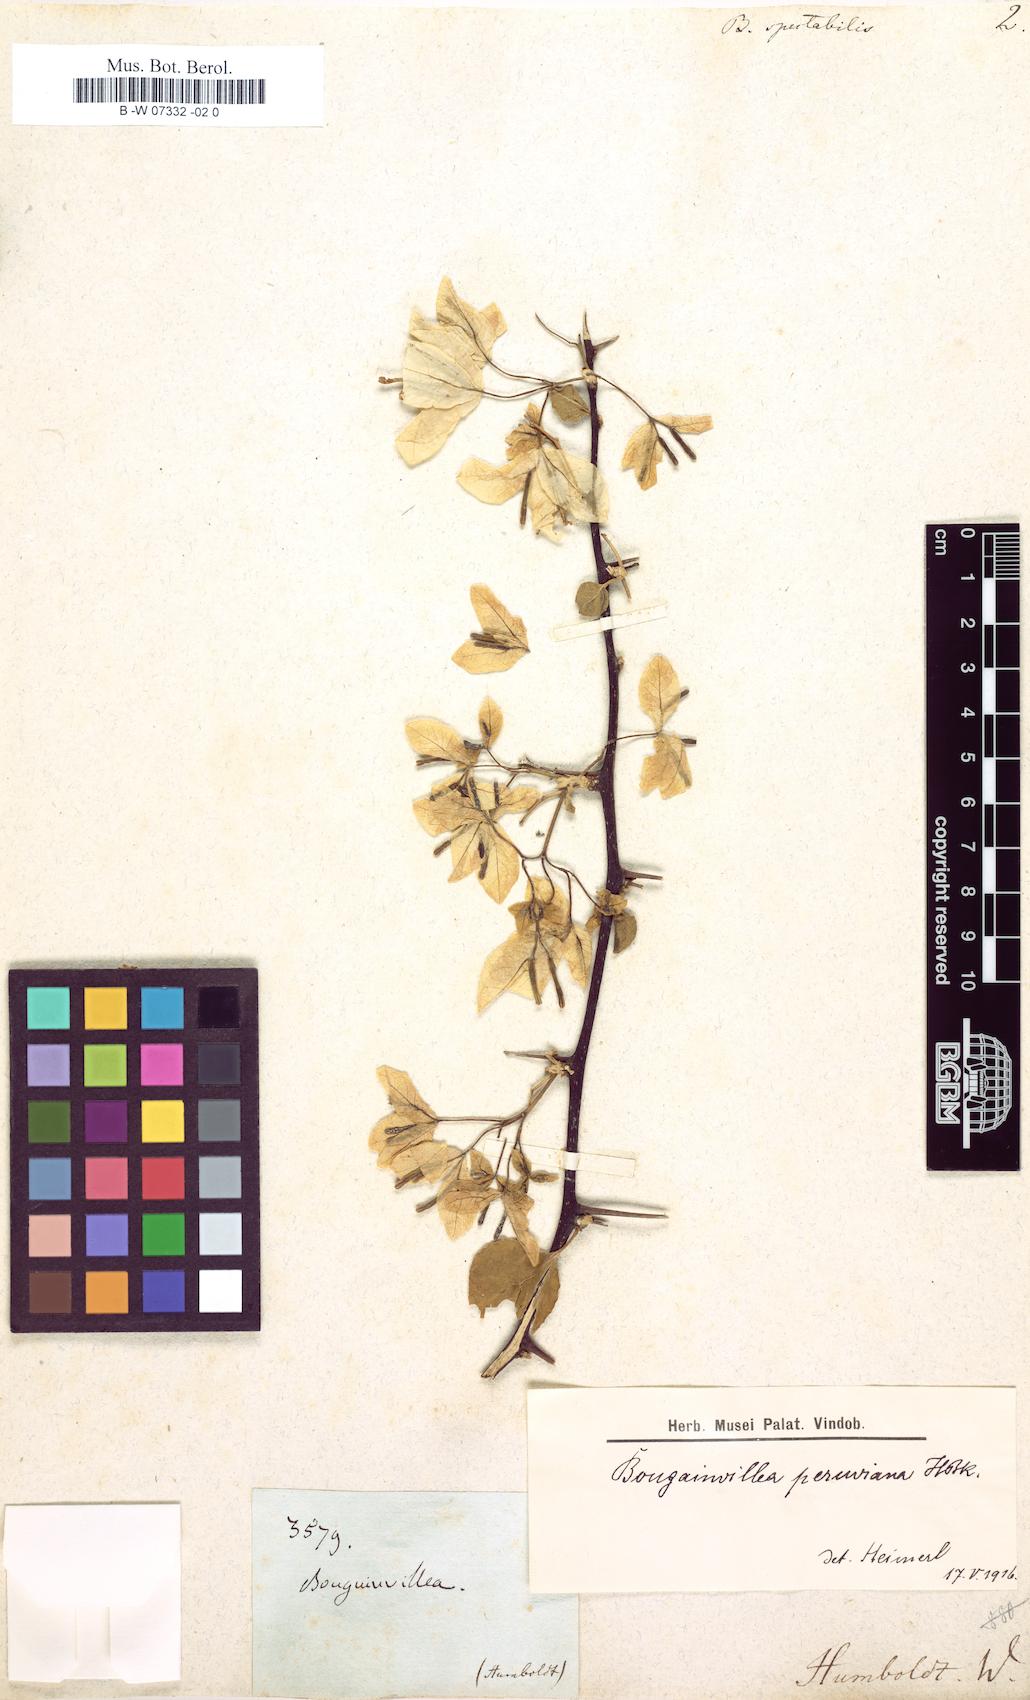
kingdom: Plantae
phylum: Tracheophyta
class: Magnoliopsida
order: Caryophyllales
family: Nyctaginaceae
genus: Bougainvillea
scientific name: Bougainvillea spectabilis
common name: Great bougainvillea
